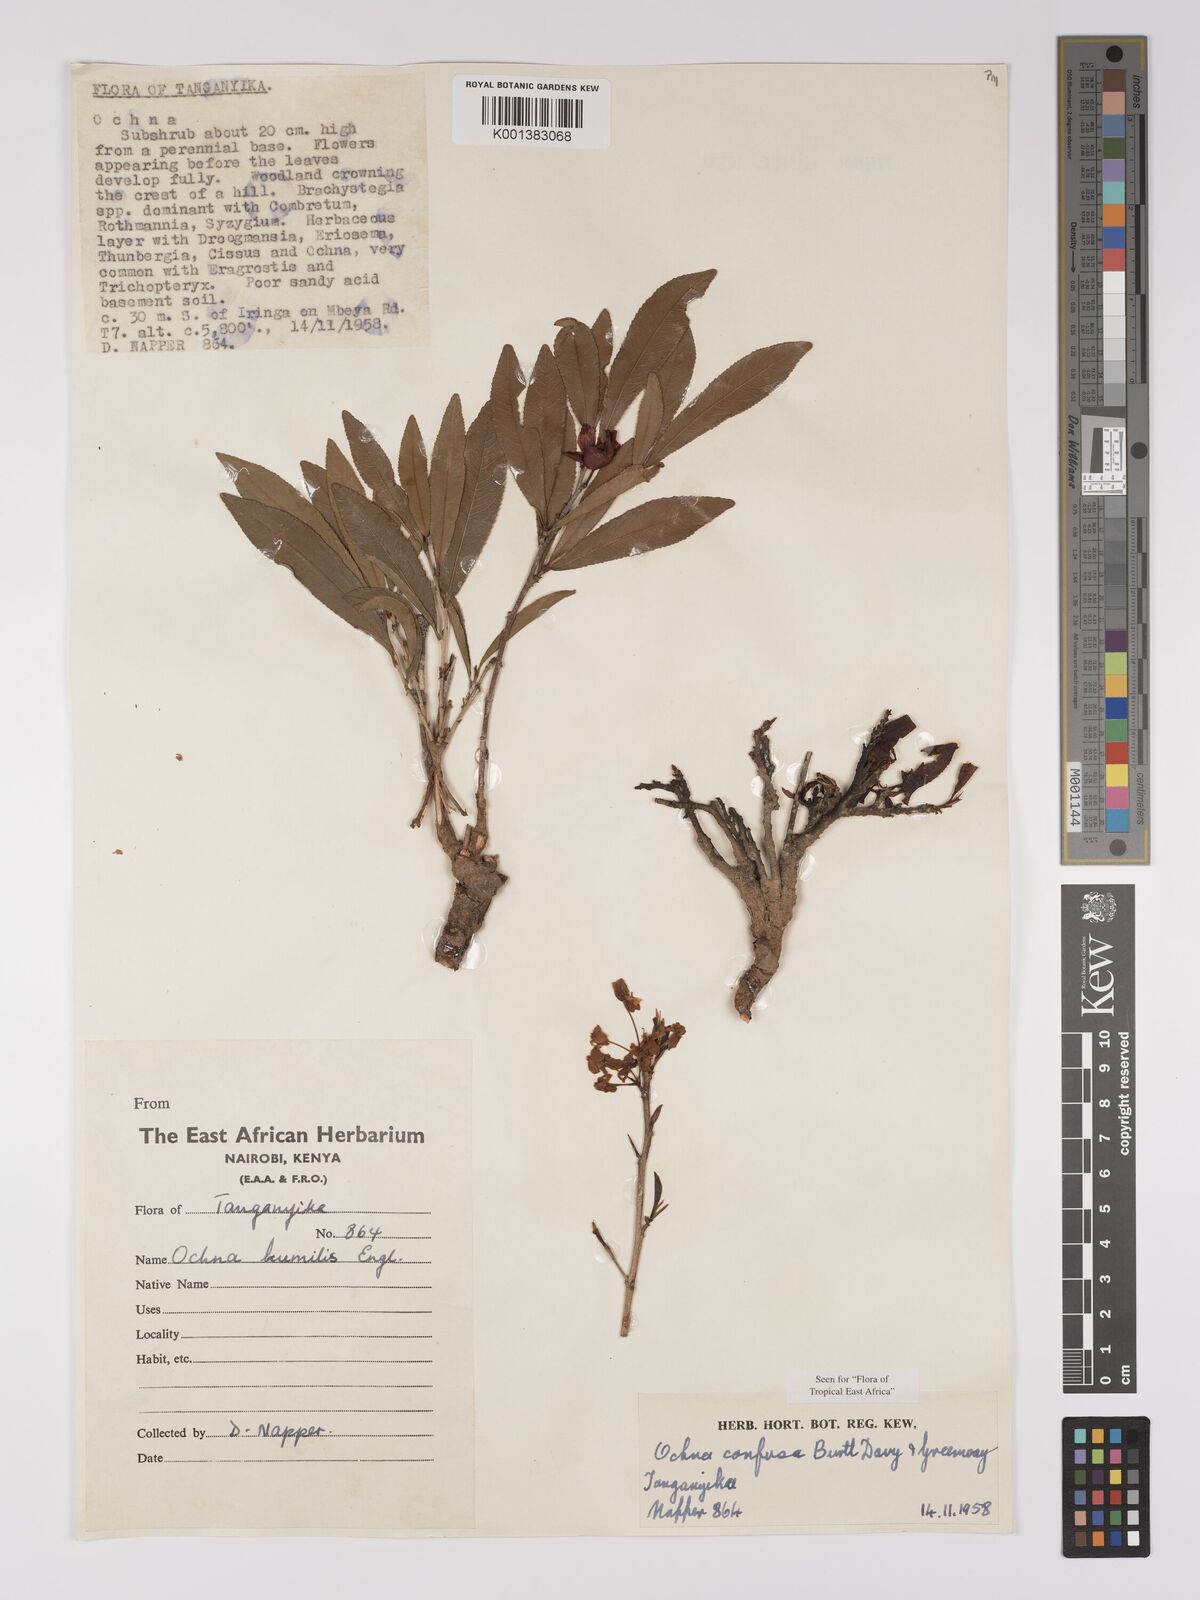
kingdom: Plantae
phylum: Tracheophyta
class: Magnoliopsida
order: Malpighiales
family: Ochnaceae
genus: Ochna
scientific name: Ochna confusa
